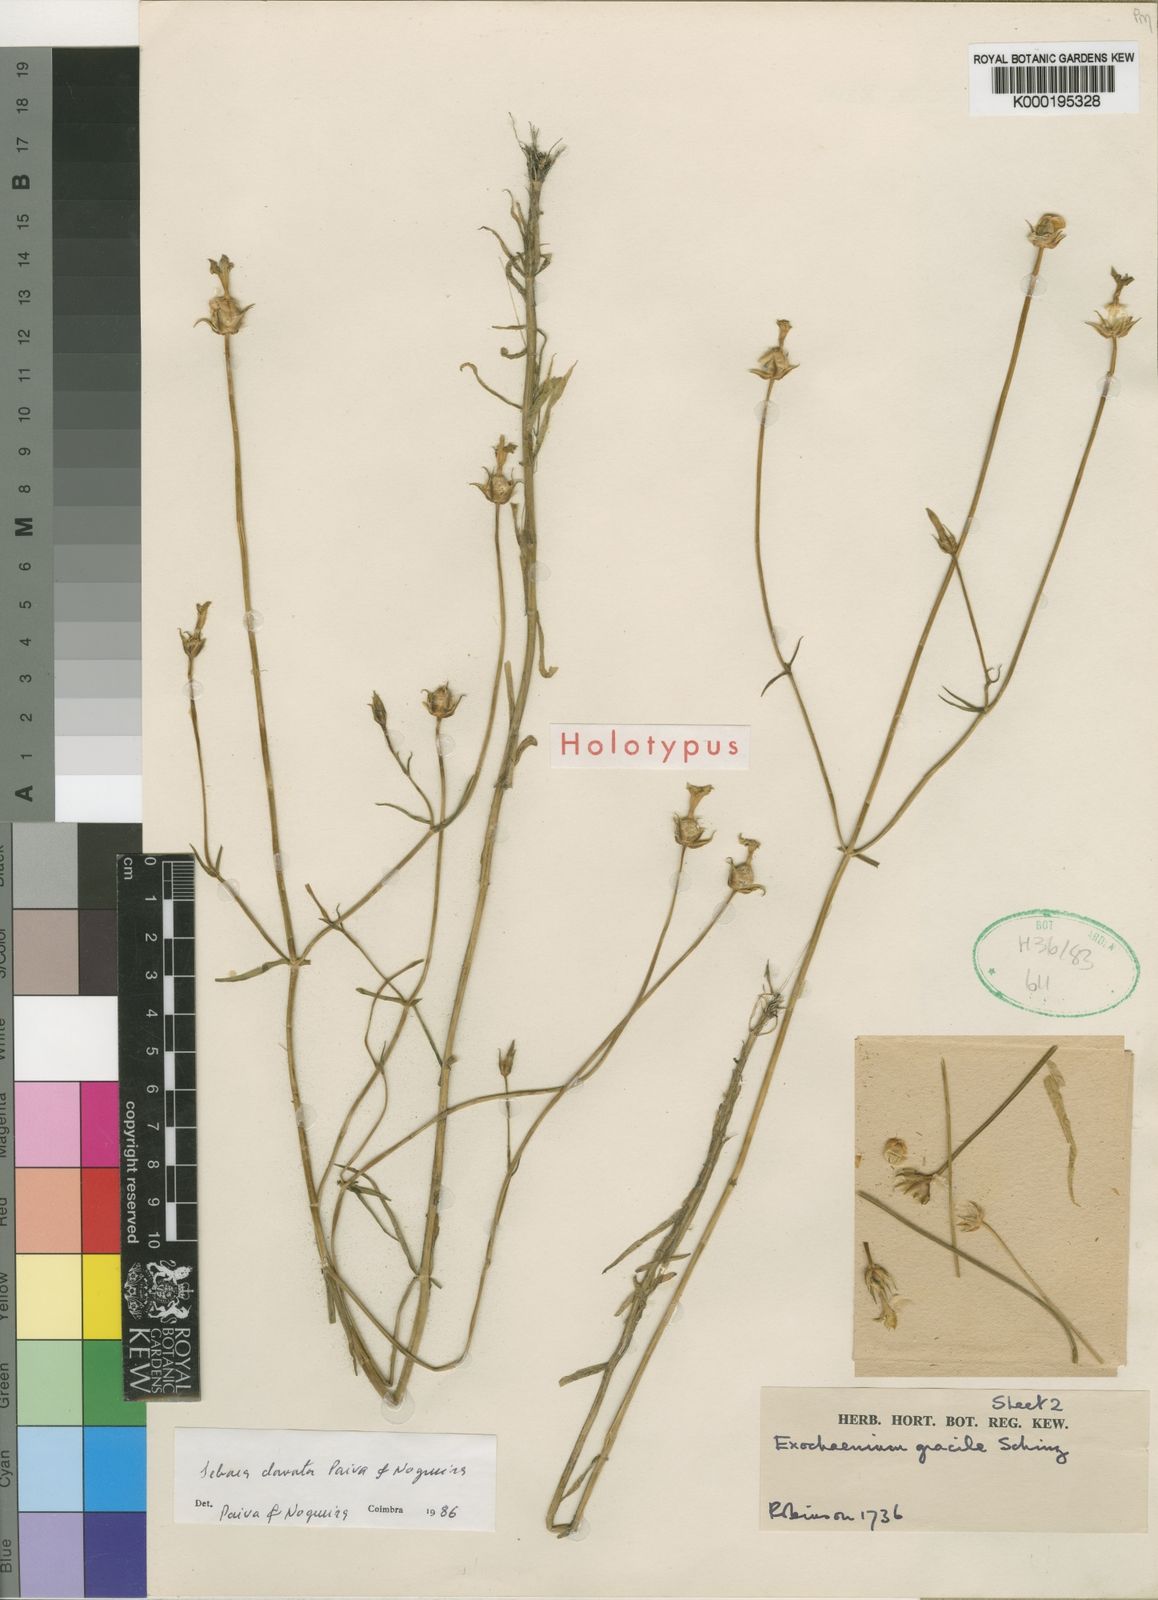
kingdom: Plantae
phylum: Tracheophyta
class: Magnoliopsida
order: Gentianales
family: Gentianaceae
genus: Exochaenium
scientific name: Exochaenium clavatum
